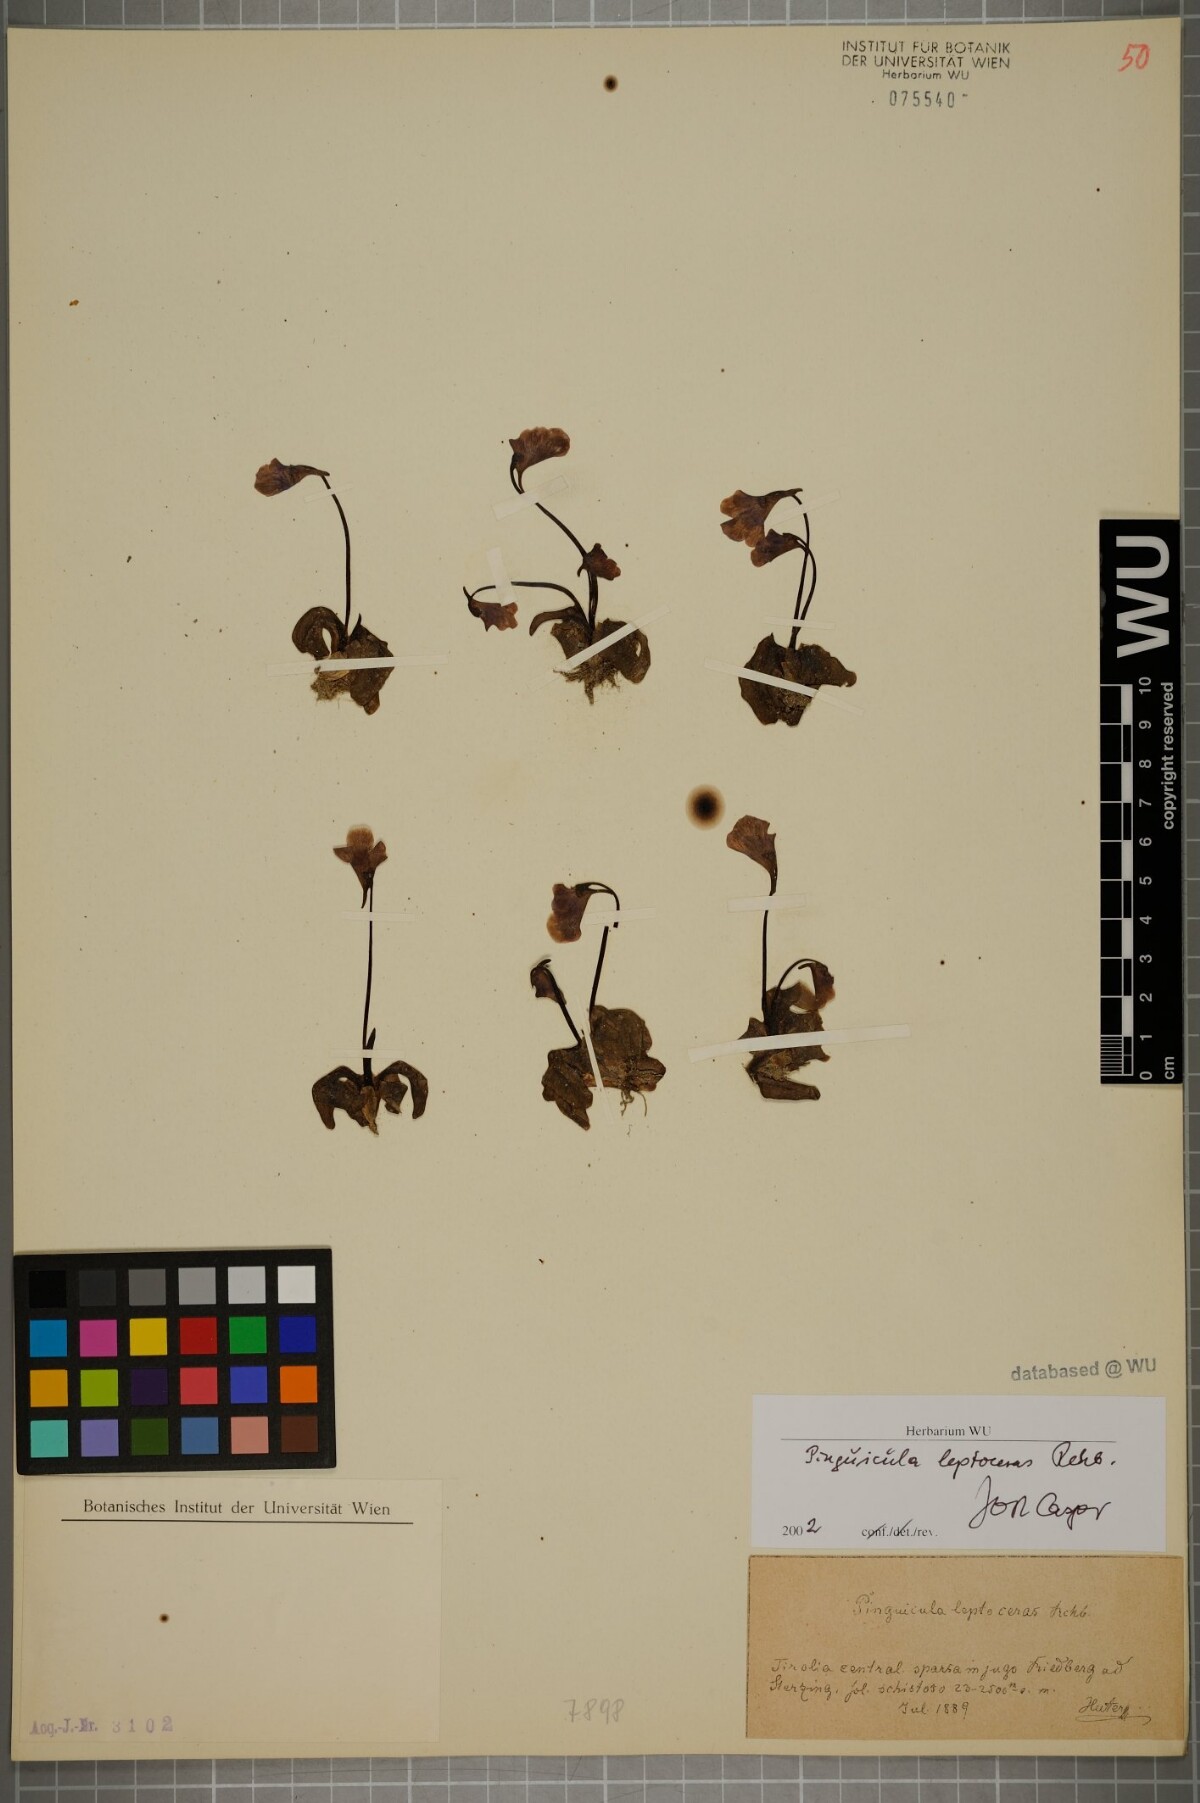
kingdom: Plantae
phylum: Tracheophyta
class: Magnoliopsida
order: Lamiales
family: Lentibulariaceae
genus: Pinguicula
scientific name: Pinguicula leptoceras
